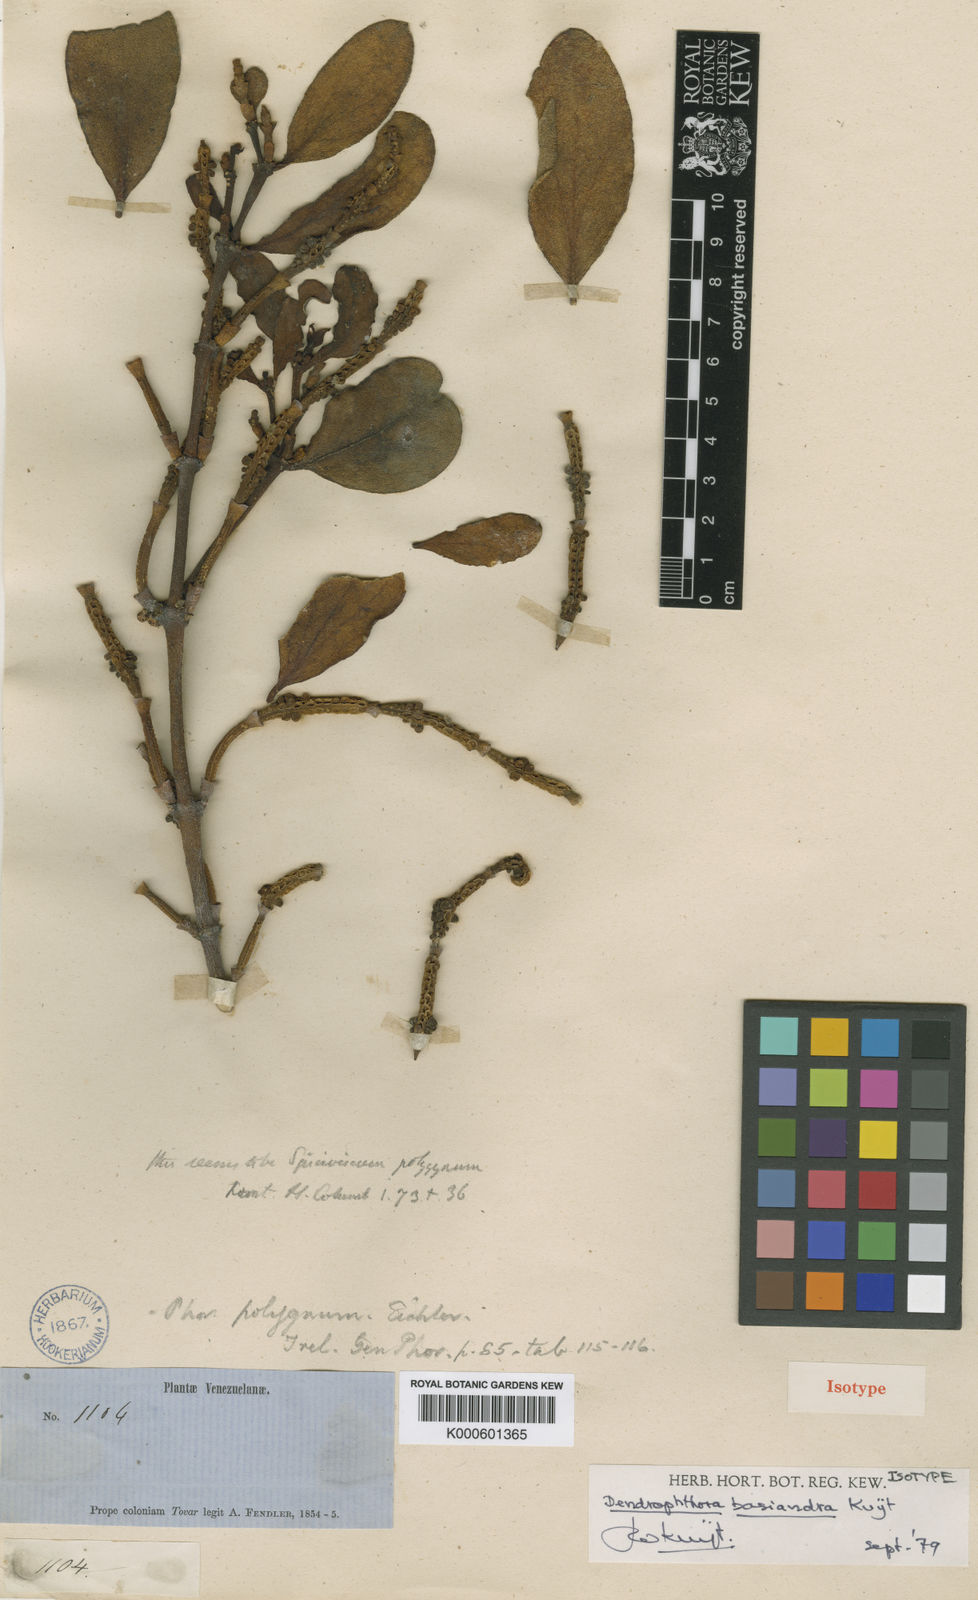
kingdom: Plantae
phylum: Tracheophyta
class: Magnoliopsida
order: Santalales
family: Viscaceae
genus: Dendrophthora
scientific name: Dendrophthora macbridei
